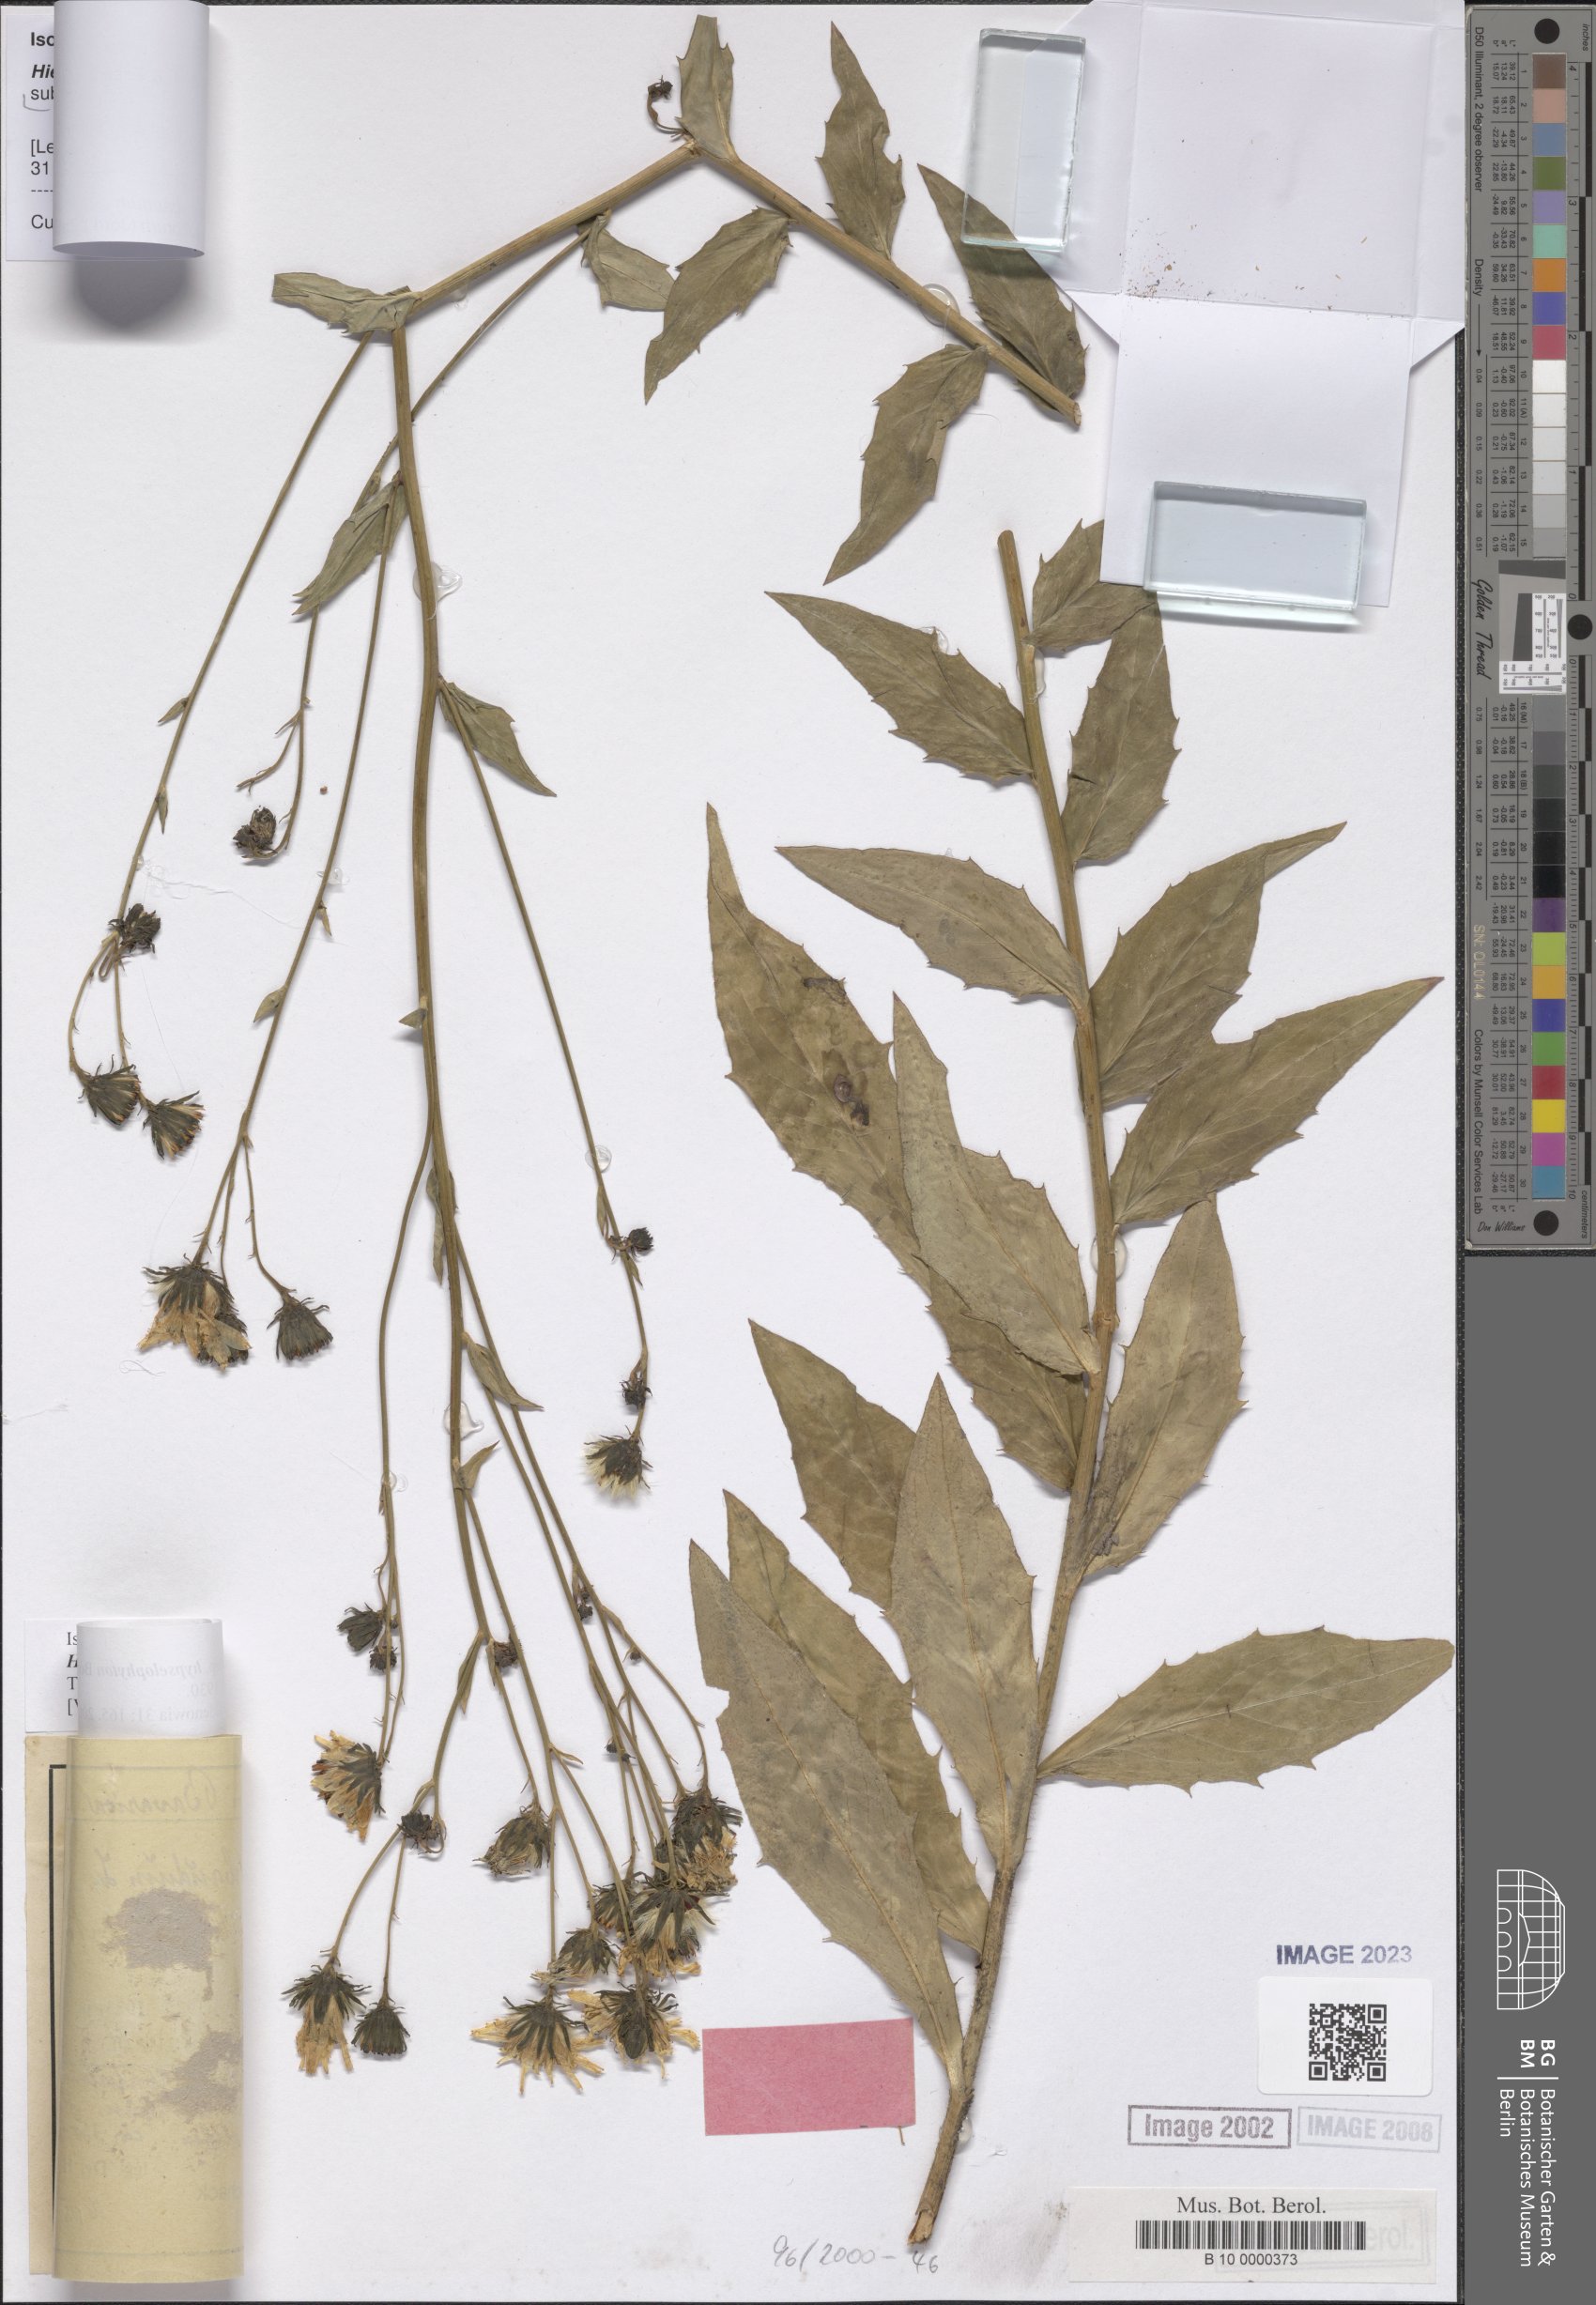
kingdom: Plantae
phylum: Tracheophyta
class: Magnoliopsida
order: Asterales
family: Asteraceae
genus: Hieracium
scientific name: Hieracium sabaudum
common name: New england hawkweed
